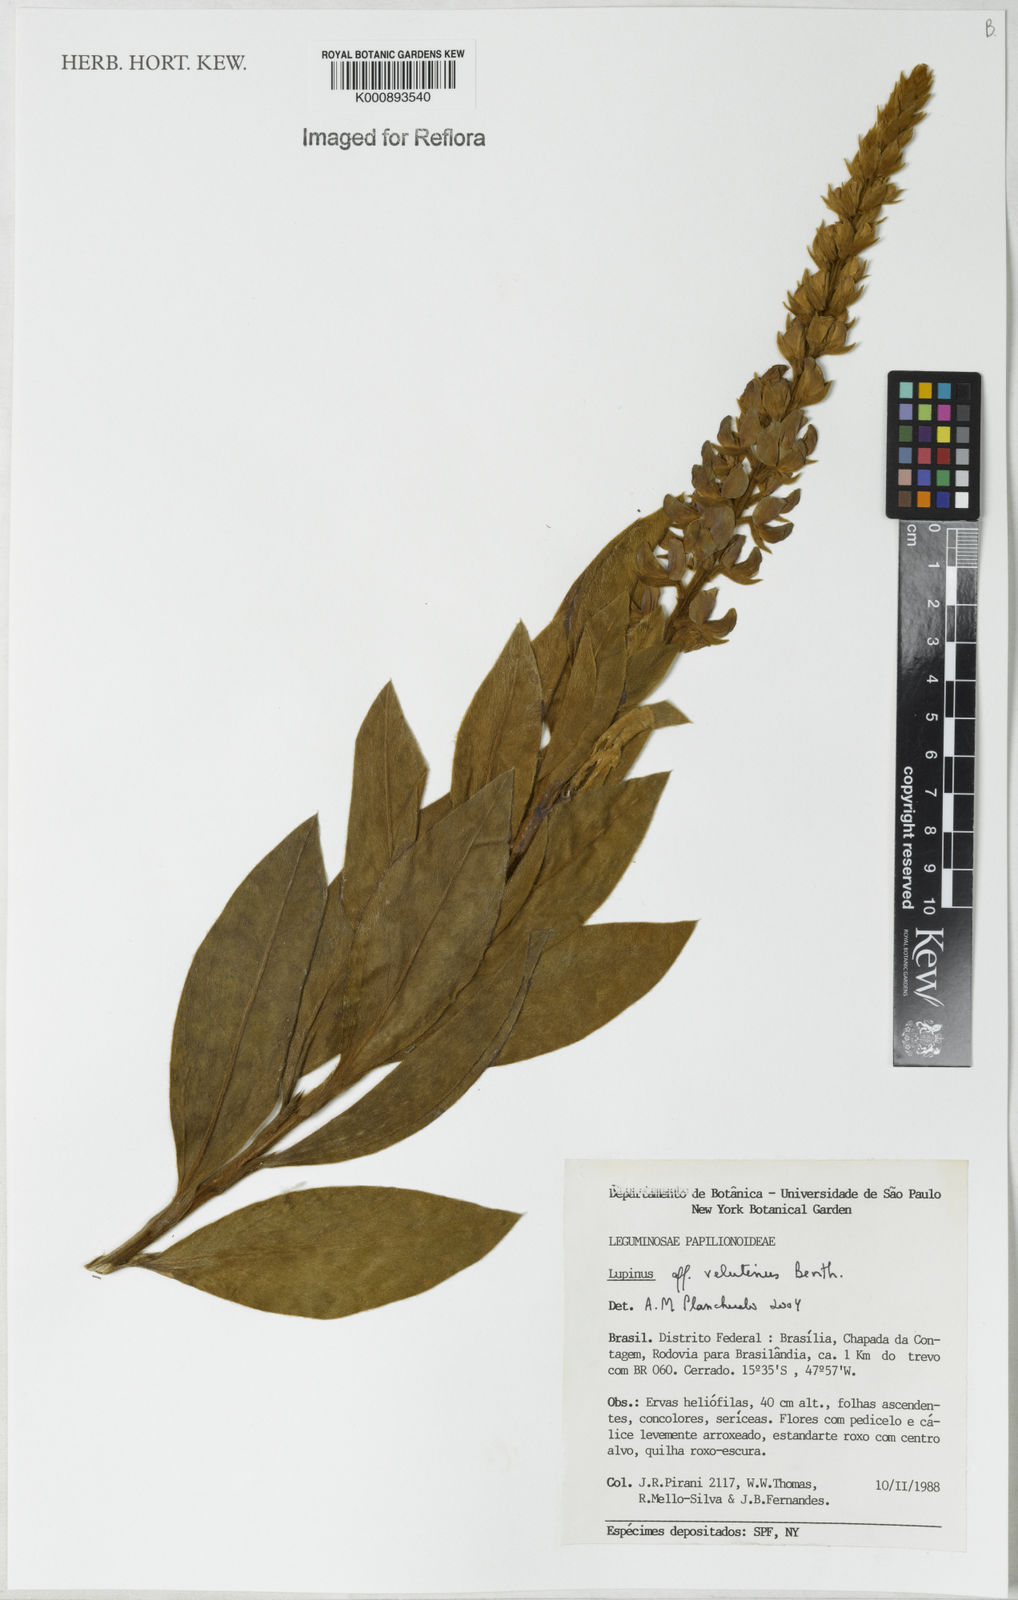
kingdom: Plantae
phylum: Tracheophyta
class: Magnoliopsida
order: Fabales
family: Fabaceae
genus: Lupinus
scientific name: Lupinus velutinus
